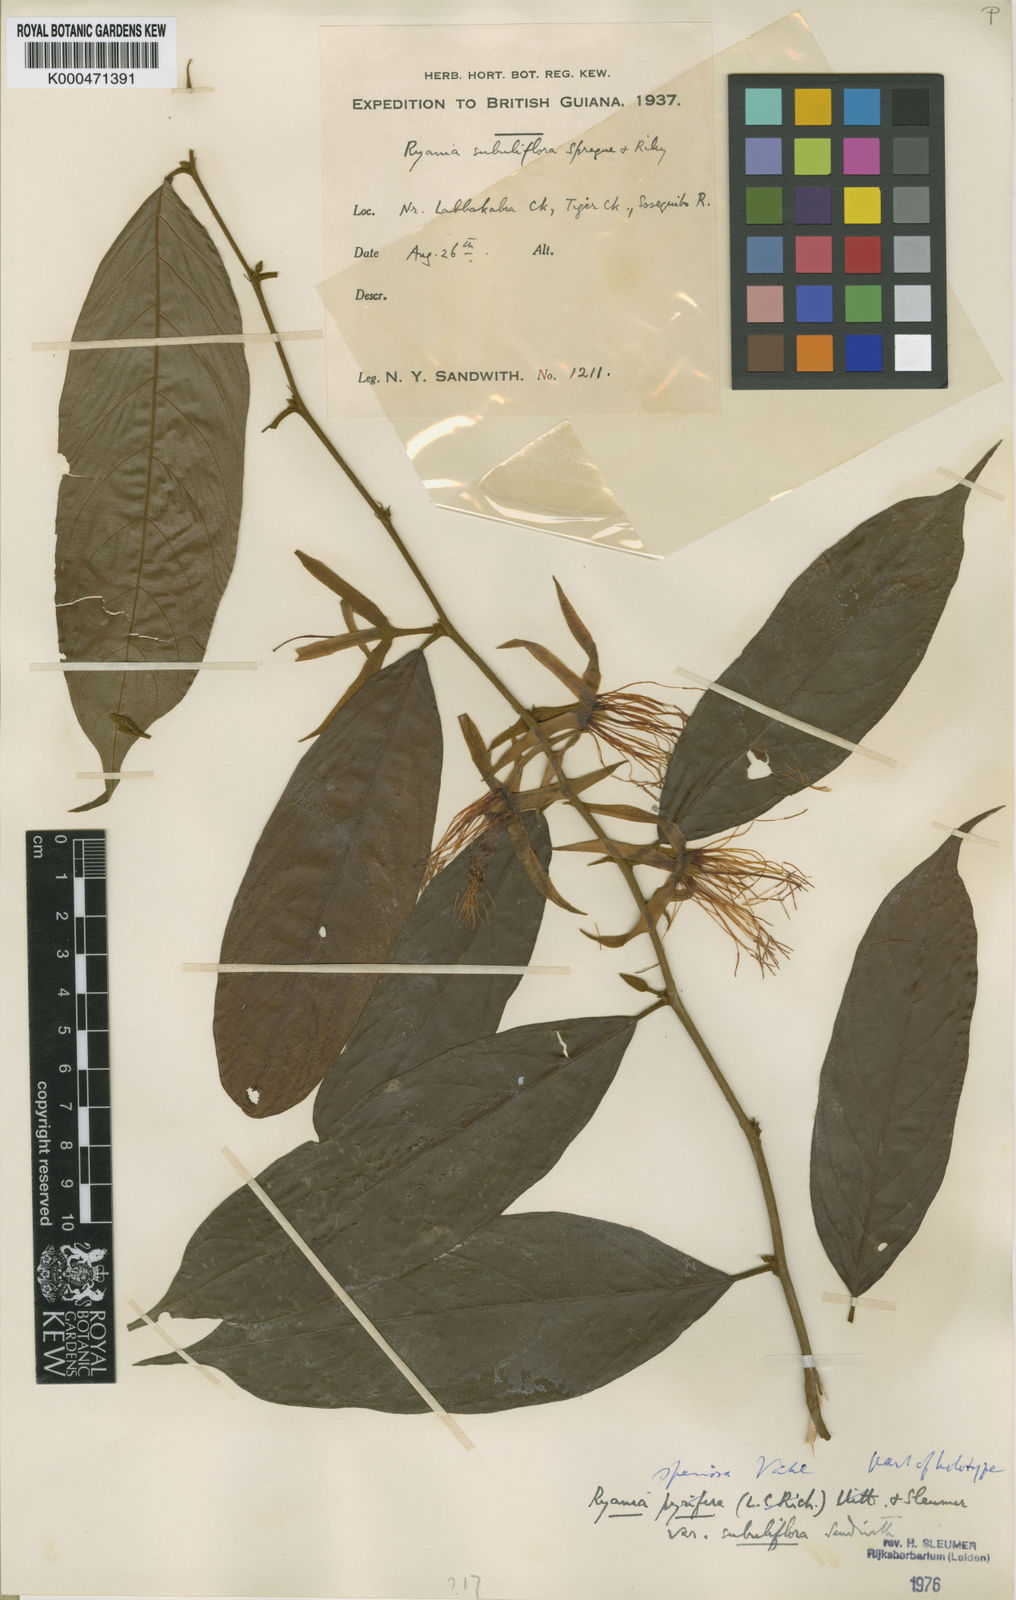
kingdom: Plantae
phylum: Tracheophyta
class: Magnoliopsida
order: Malpighiales
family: Salicaceae
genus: Ryania
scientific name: Ryania speciosa
